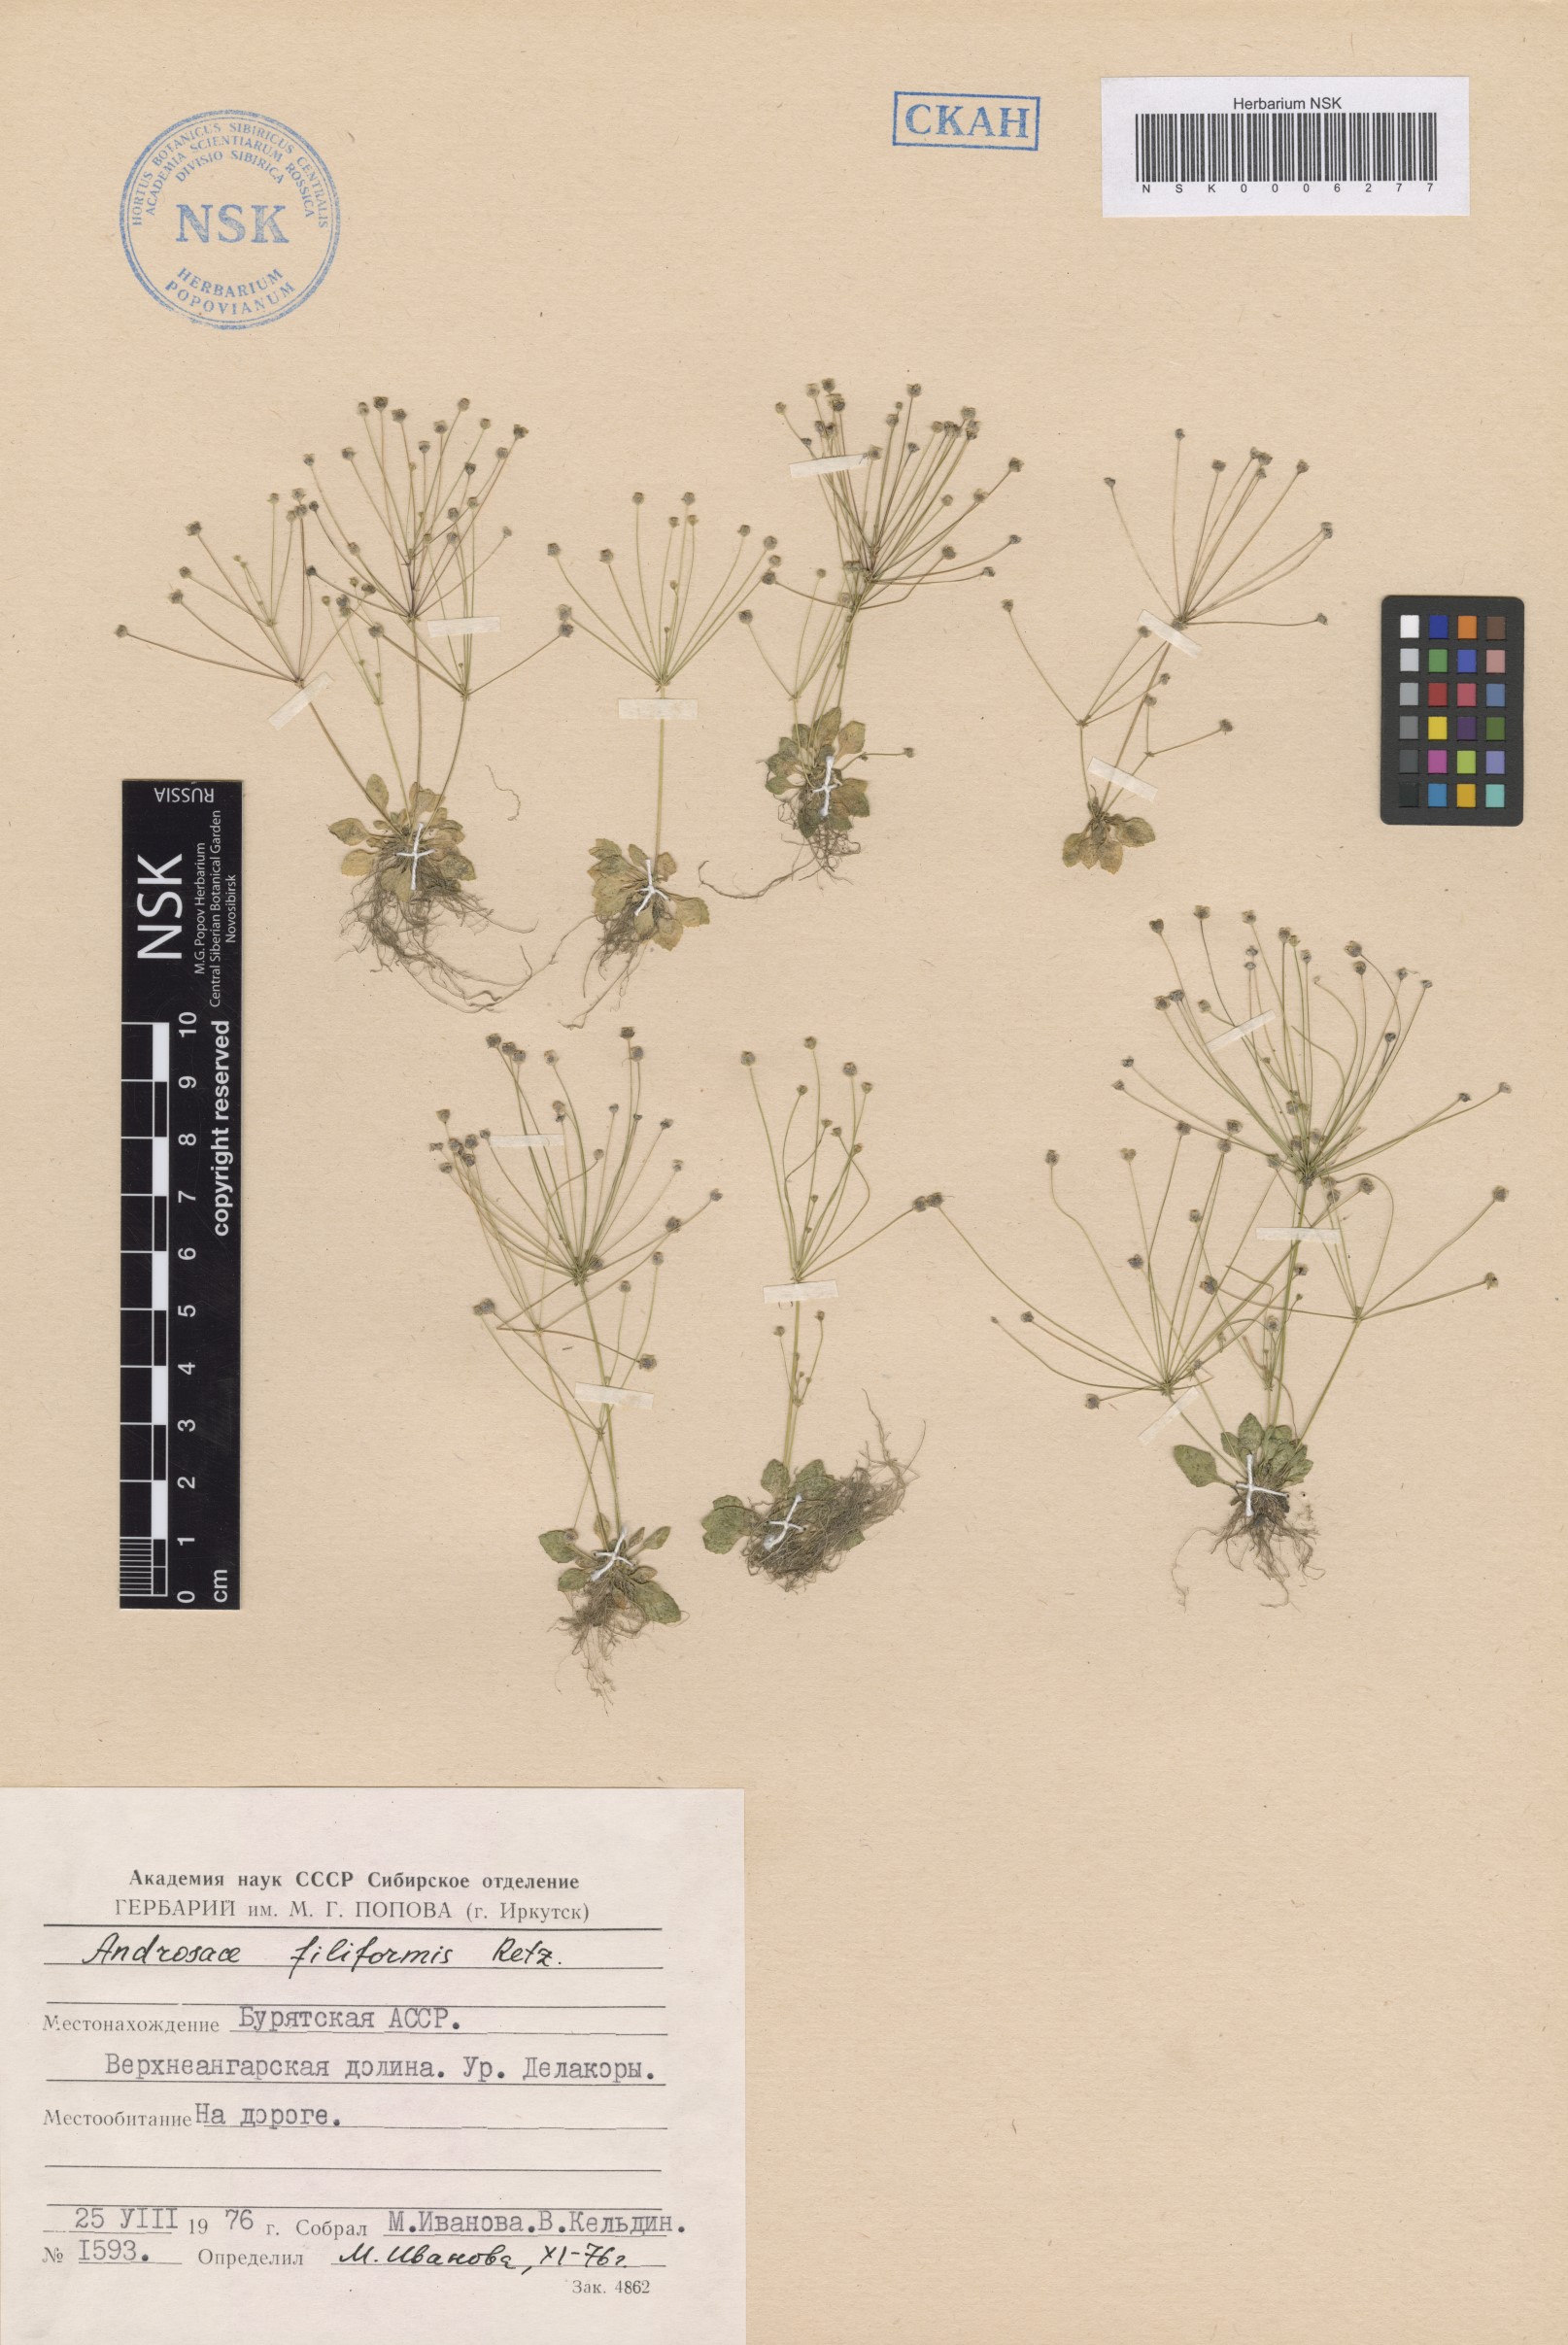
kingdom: Plantae
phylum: Tracheophyta
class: Magnoliopsida
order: Ericales
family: Primulaceae
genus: Androsace
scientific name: Androsace filiformis
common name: Filiform rock jasmine
